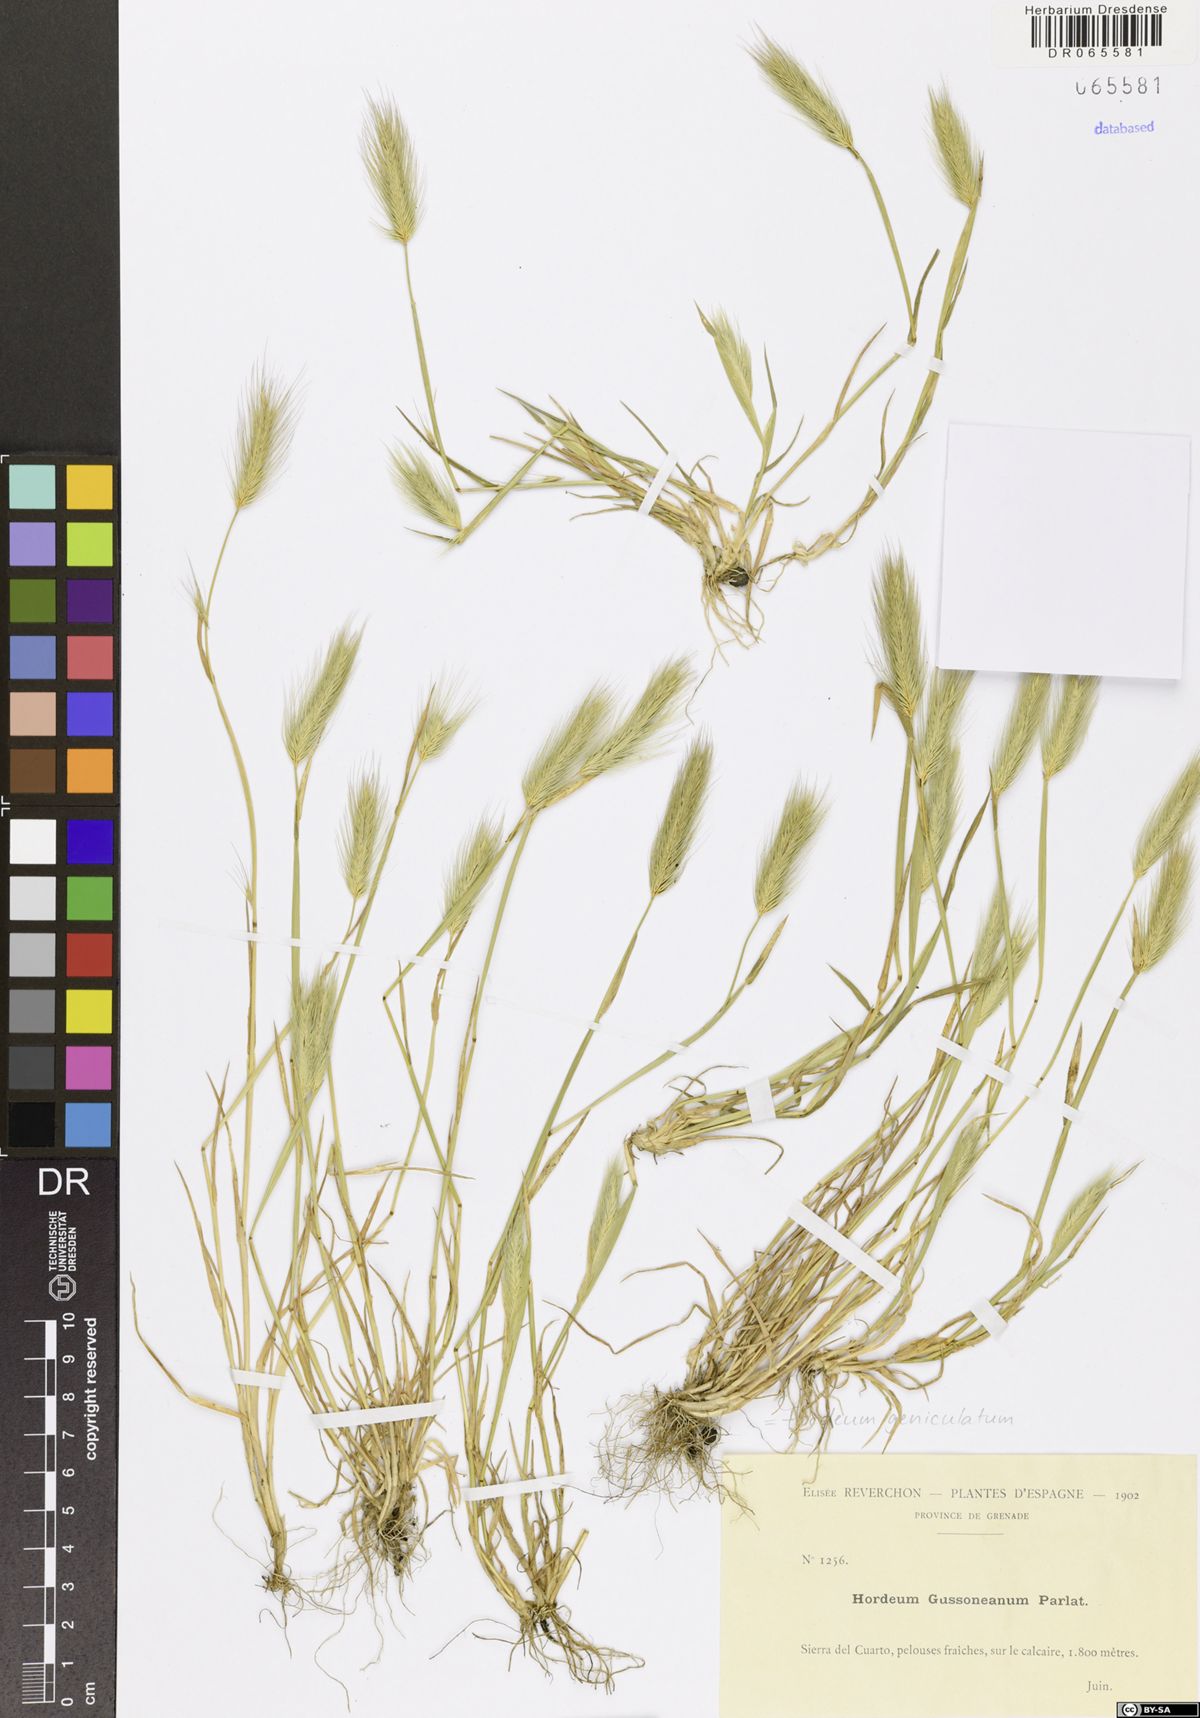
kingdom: Plantae
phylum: Tracheophyta
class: Liliopsida
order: Poales
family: Poaceae
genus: Hordeum
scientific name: Hordeum marinum
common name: Sea barley
